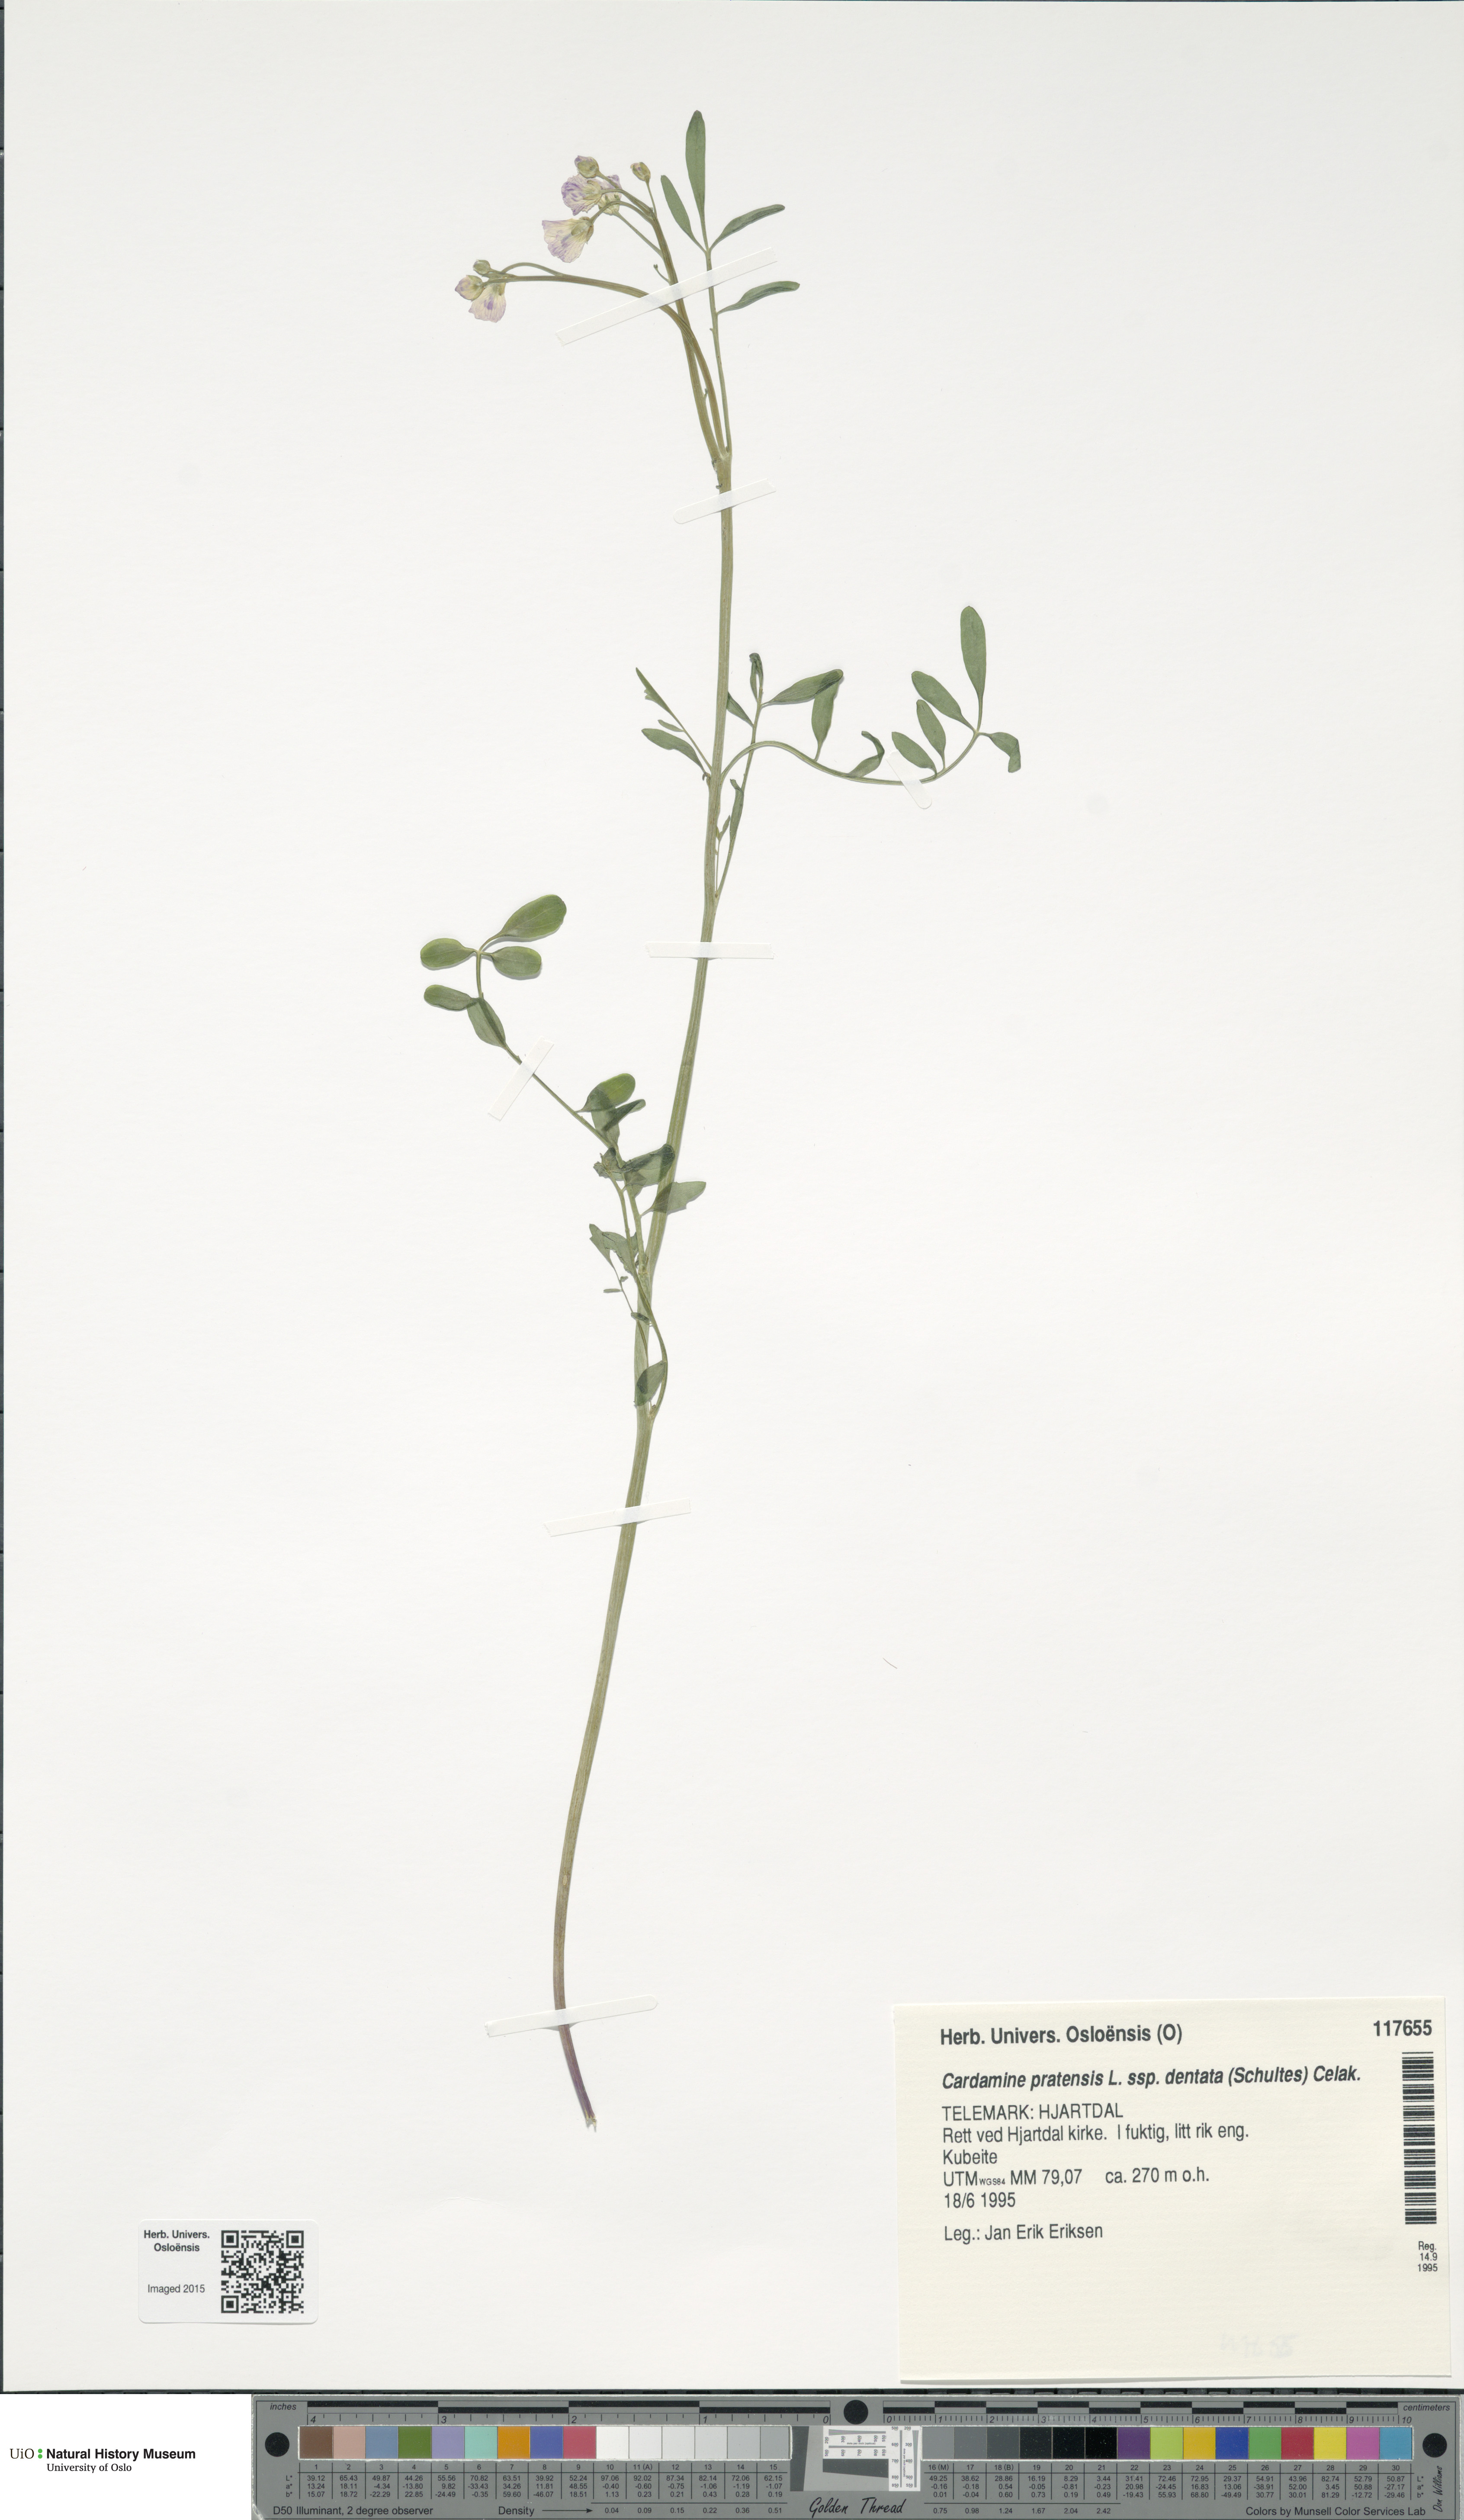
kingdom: Plantae
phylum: Tracheophyta
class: Magnoliopsida
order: Brassicales
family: Brassicaceae
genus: Cardamine
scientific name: Cardamine dentata
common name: Toothed bittercress
